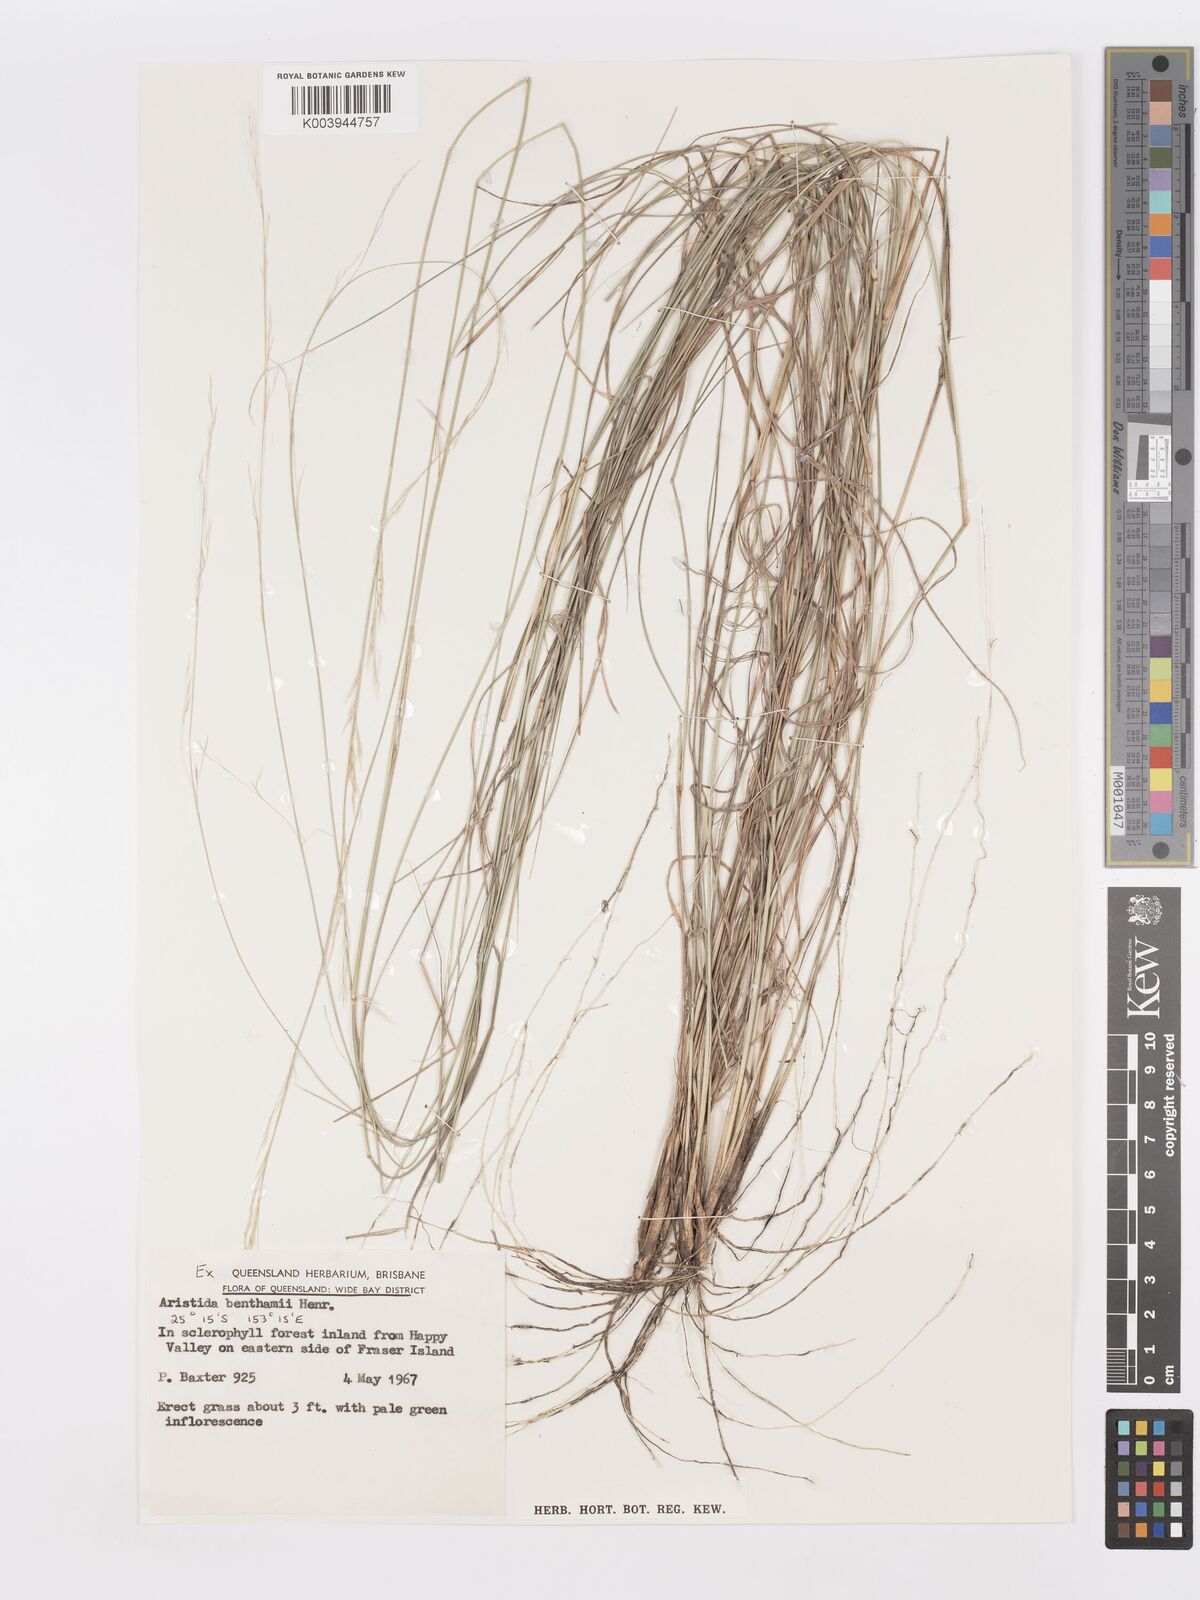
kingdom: Plantae
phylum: Tracheophyta
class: Liliopsida
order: Poales
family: Poaceae
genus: Aristida
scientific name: Aristida benthamii
